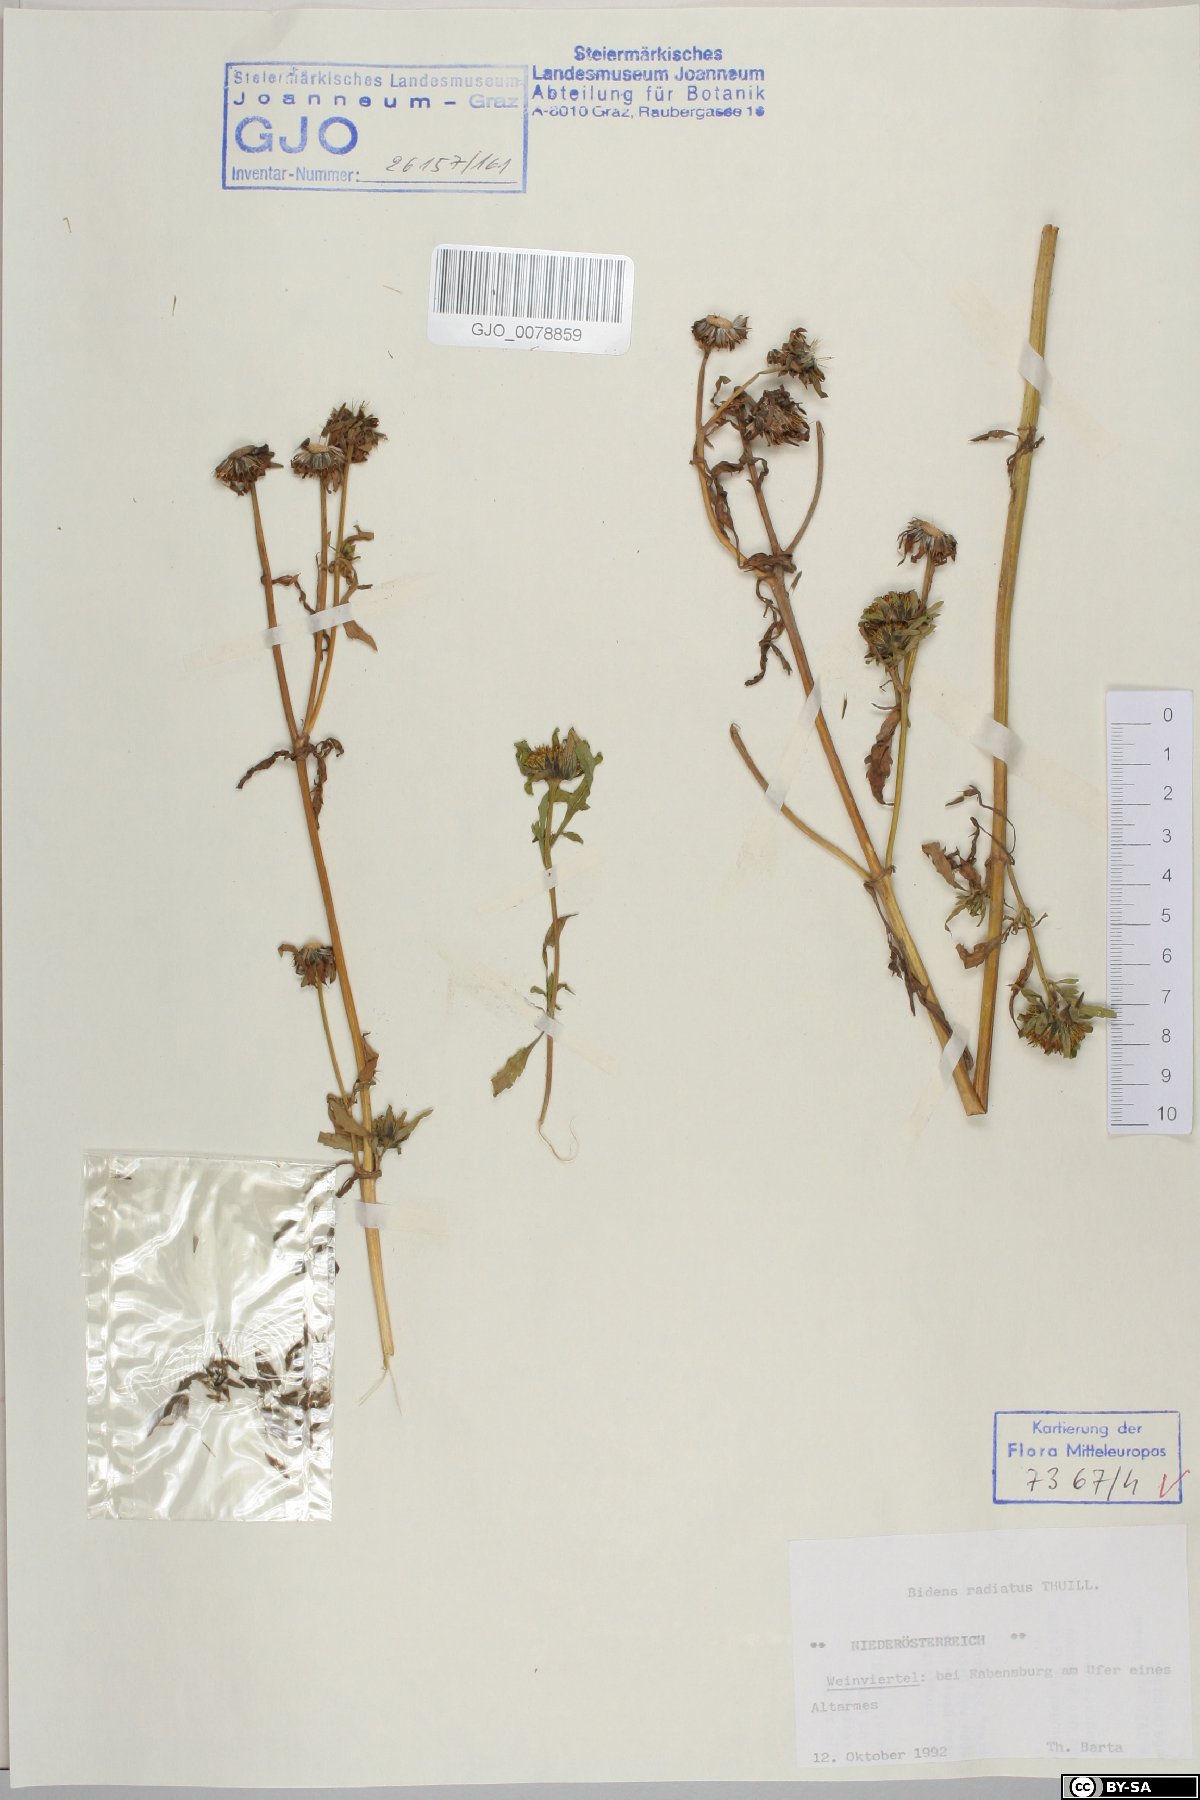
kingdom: Plantae
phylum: Tracheophyta
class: Magnoliopsida
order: Asterales
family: Asteraceae
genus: Bidens
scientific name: Bidens radiata
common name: Radiating bur-marigold
